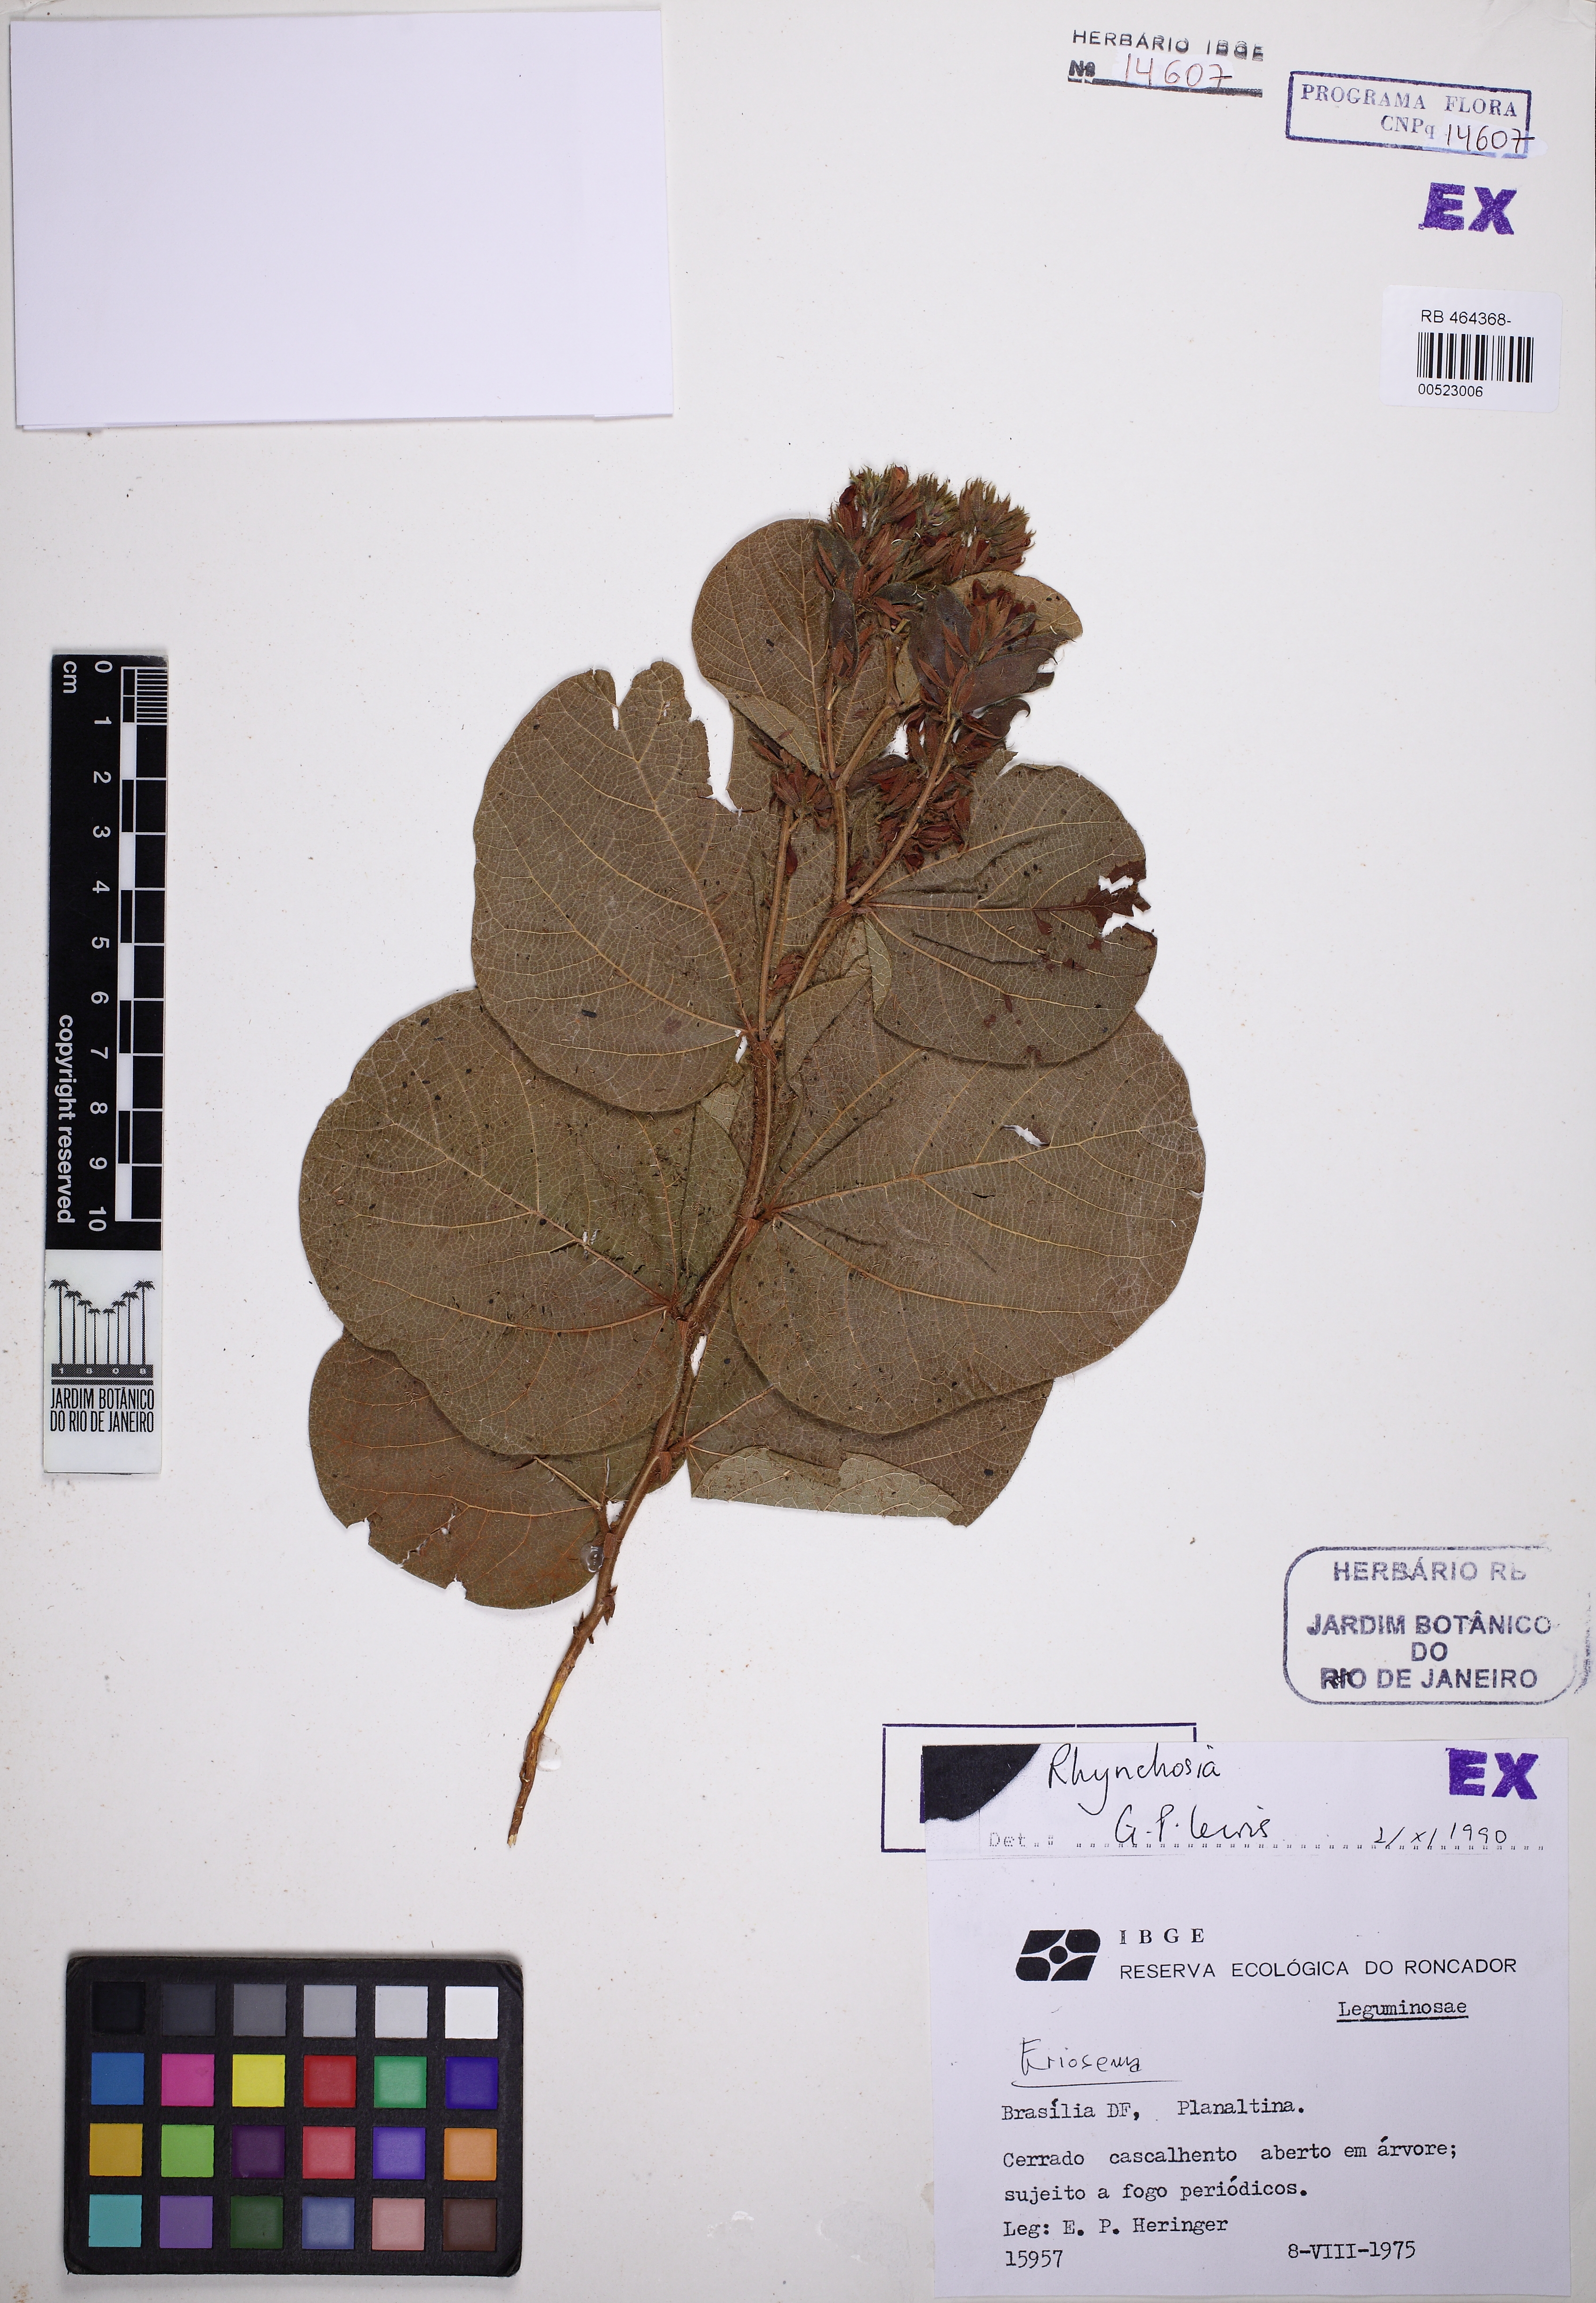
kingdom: Plantae
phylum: Tracheophyta
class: Magnoliopsida
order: Fabales
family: Fabaceae
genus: Rhynchosia
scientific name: Rhynchosia
